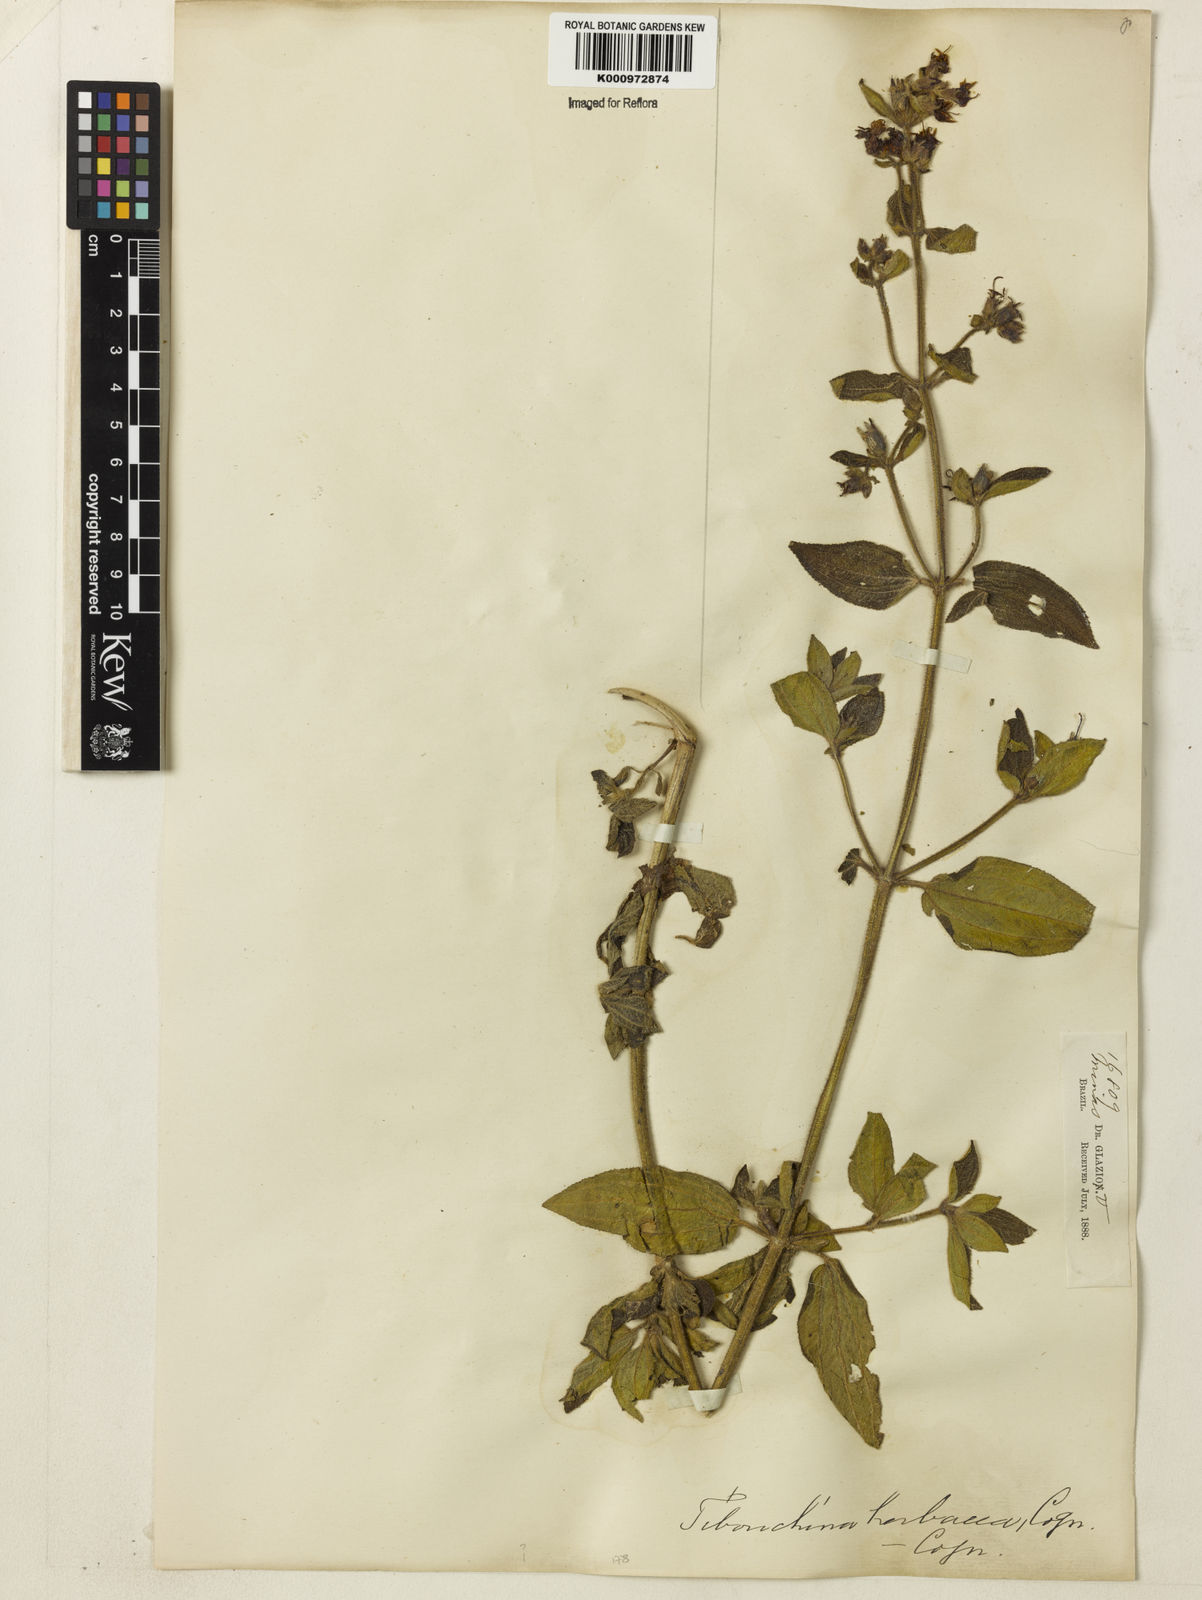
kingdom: Plantae
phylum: Tracheophyta
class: Magnoliopsida
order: Myrtales
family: Melastomataceae
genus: Chaetogastra
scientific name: Chaetogastra herbacea
